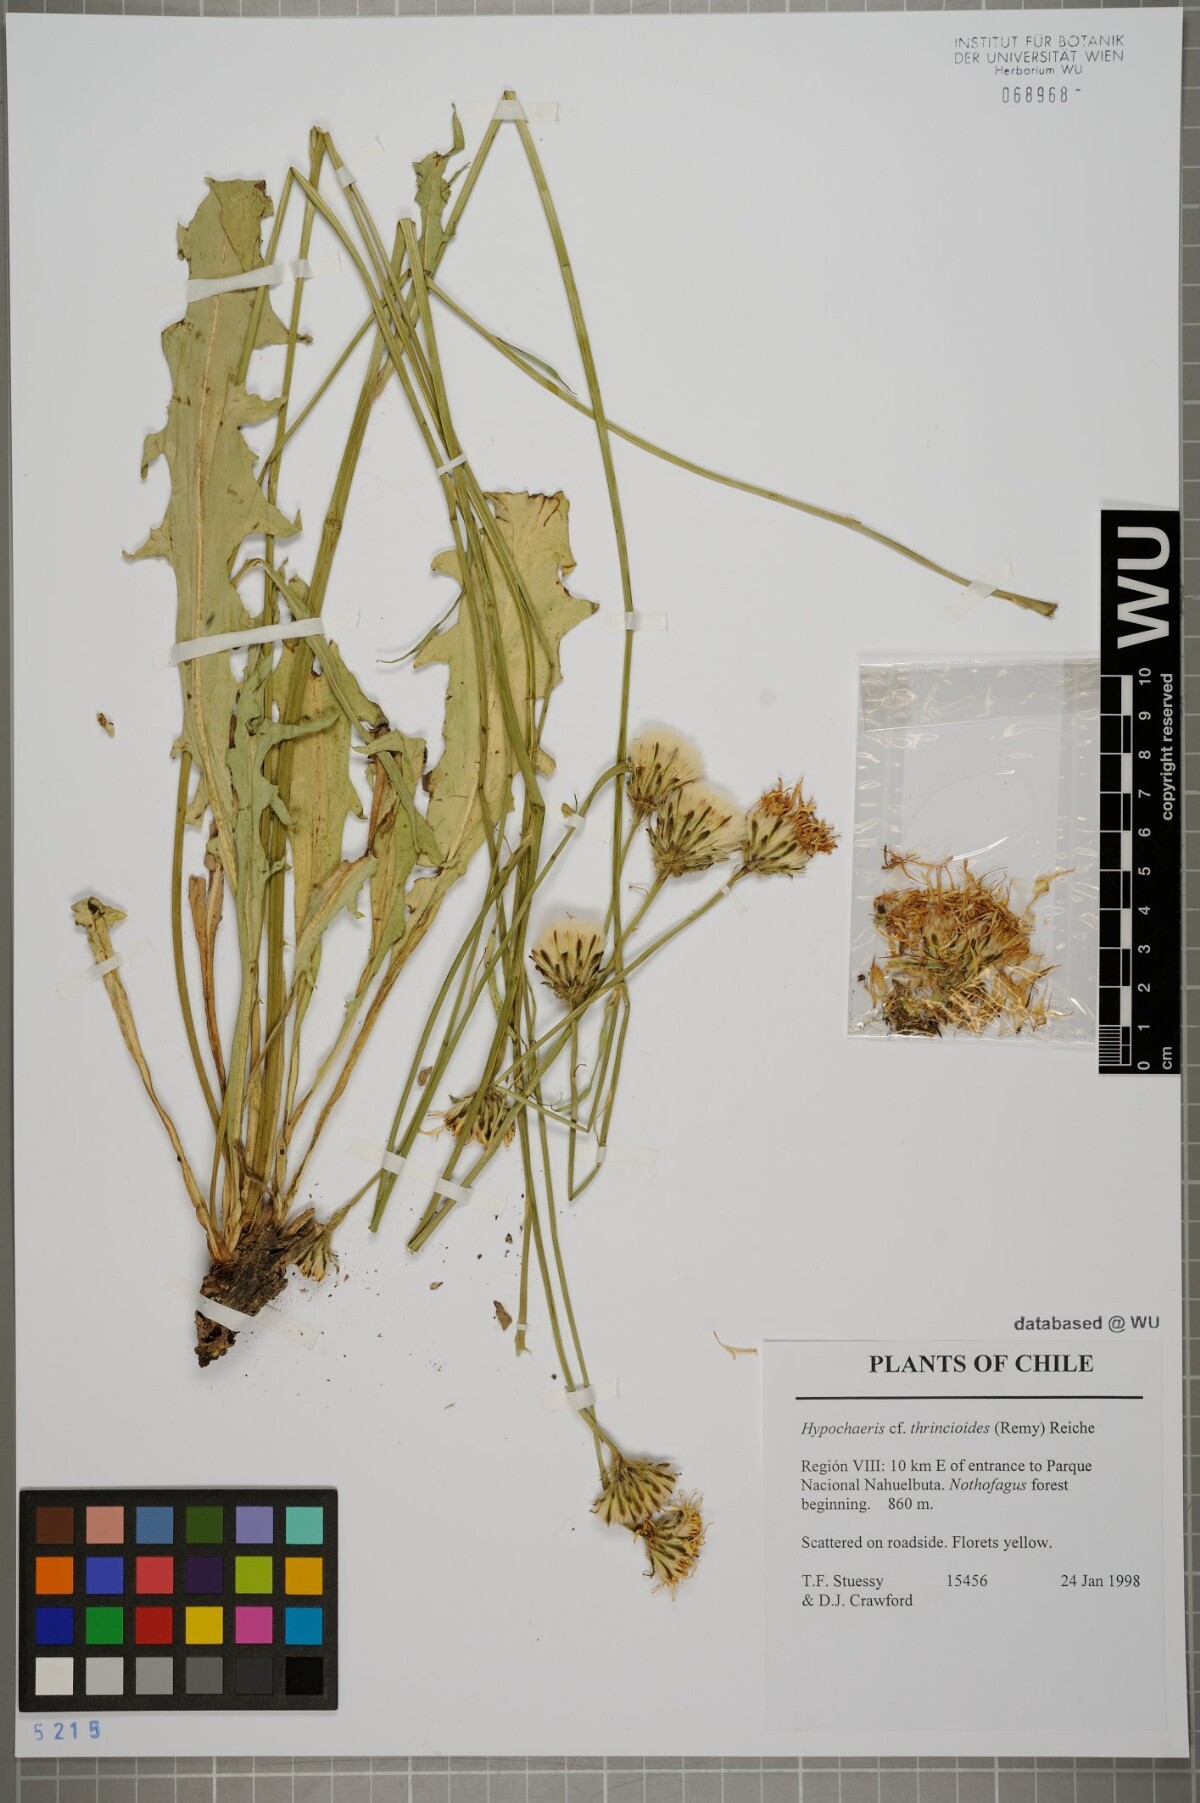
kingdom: Plantae
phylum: Tracheophyta
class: Magnoliopsida
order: Asterales
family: Asteraceae
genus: Hypochaeris
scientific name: Hypochaeris apargioides
